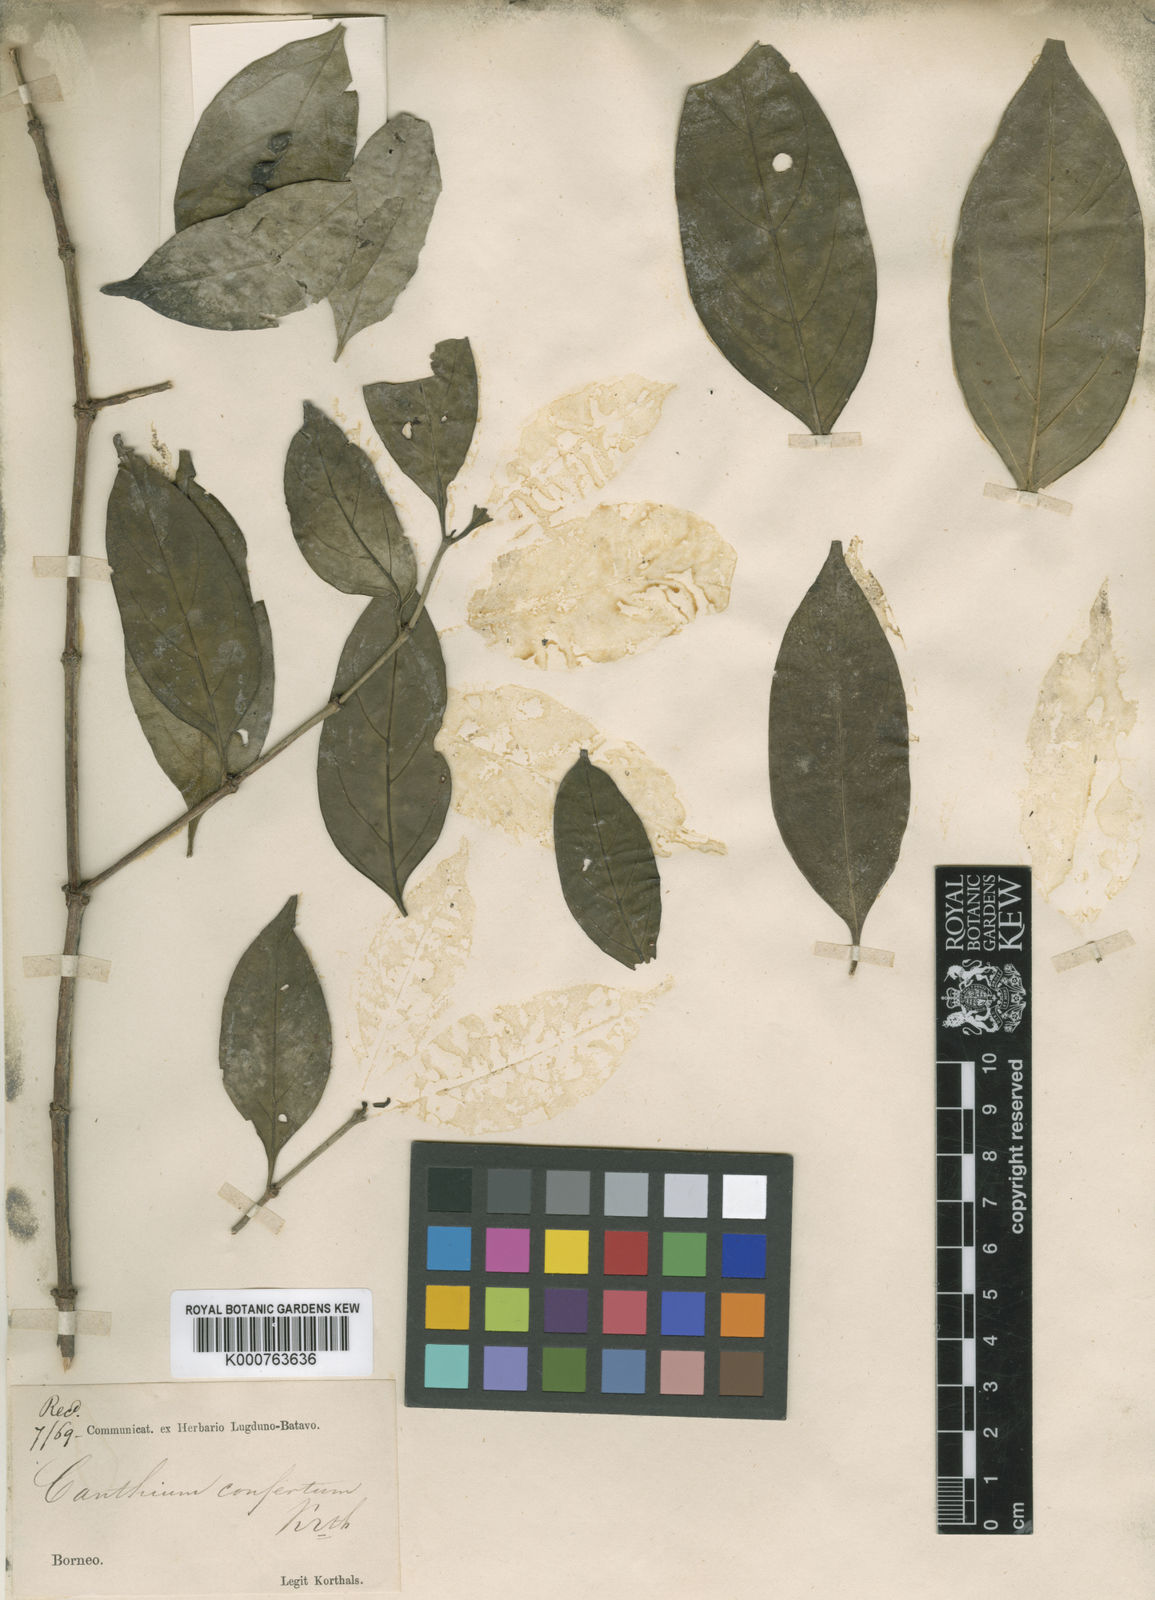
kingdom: Plantae
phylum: Tracheophyta
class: Magnoliopsida
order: Gentianales
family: Rubiaceae
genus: Dibridsonia
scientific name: Dibridsonia conferta
